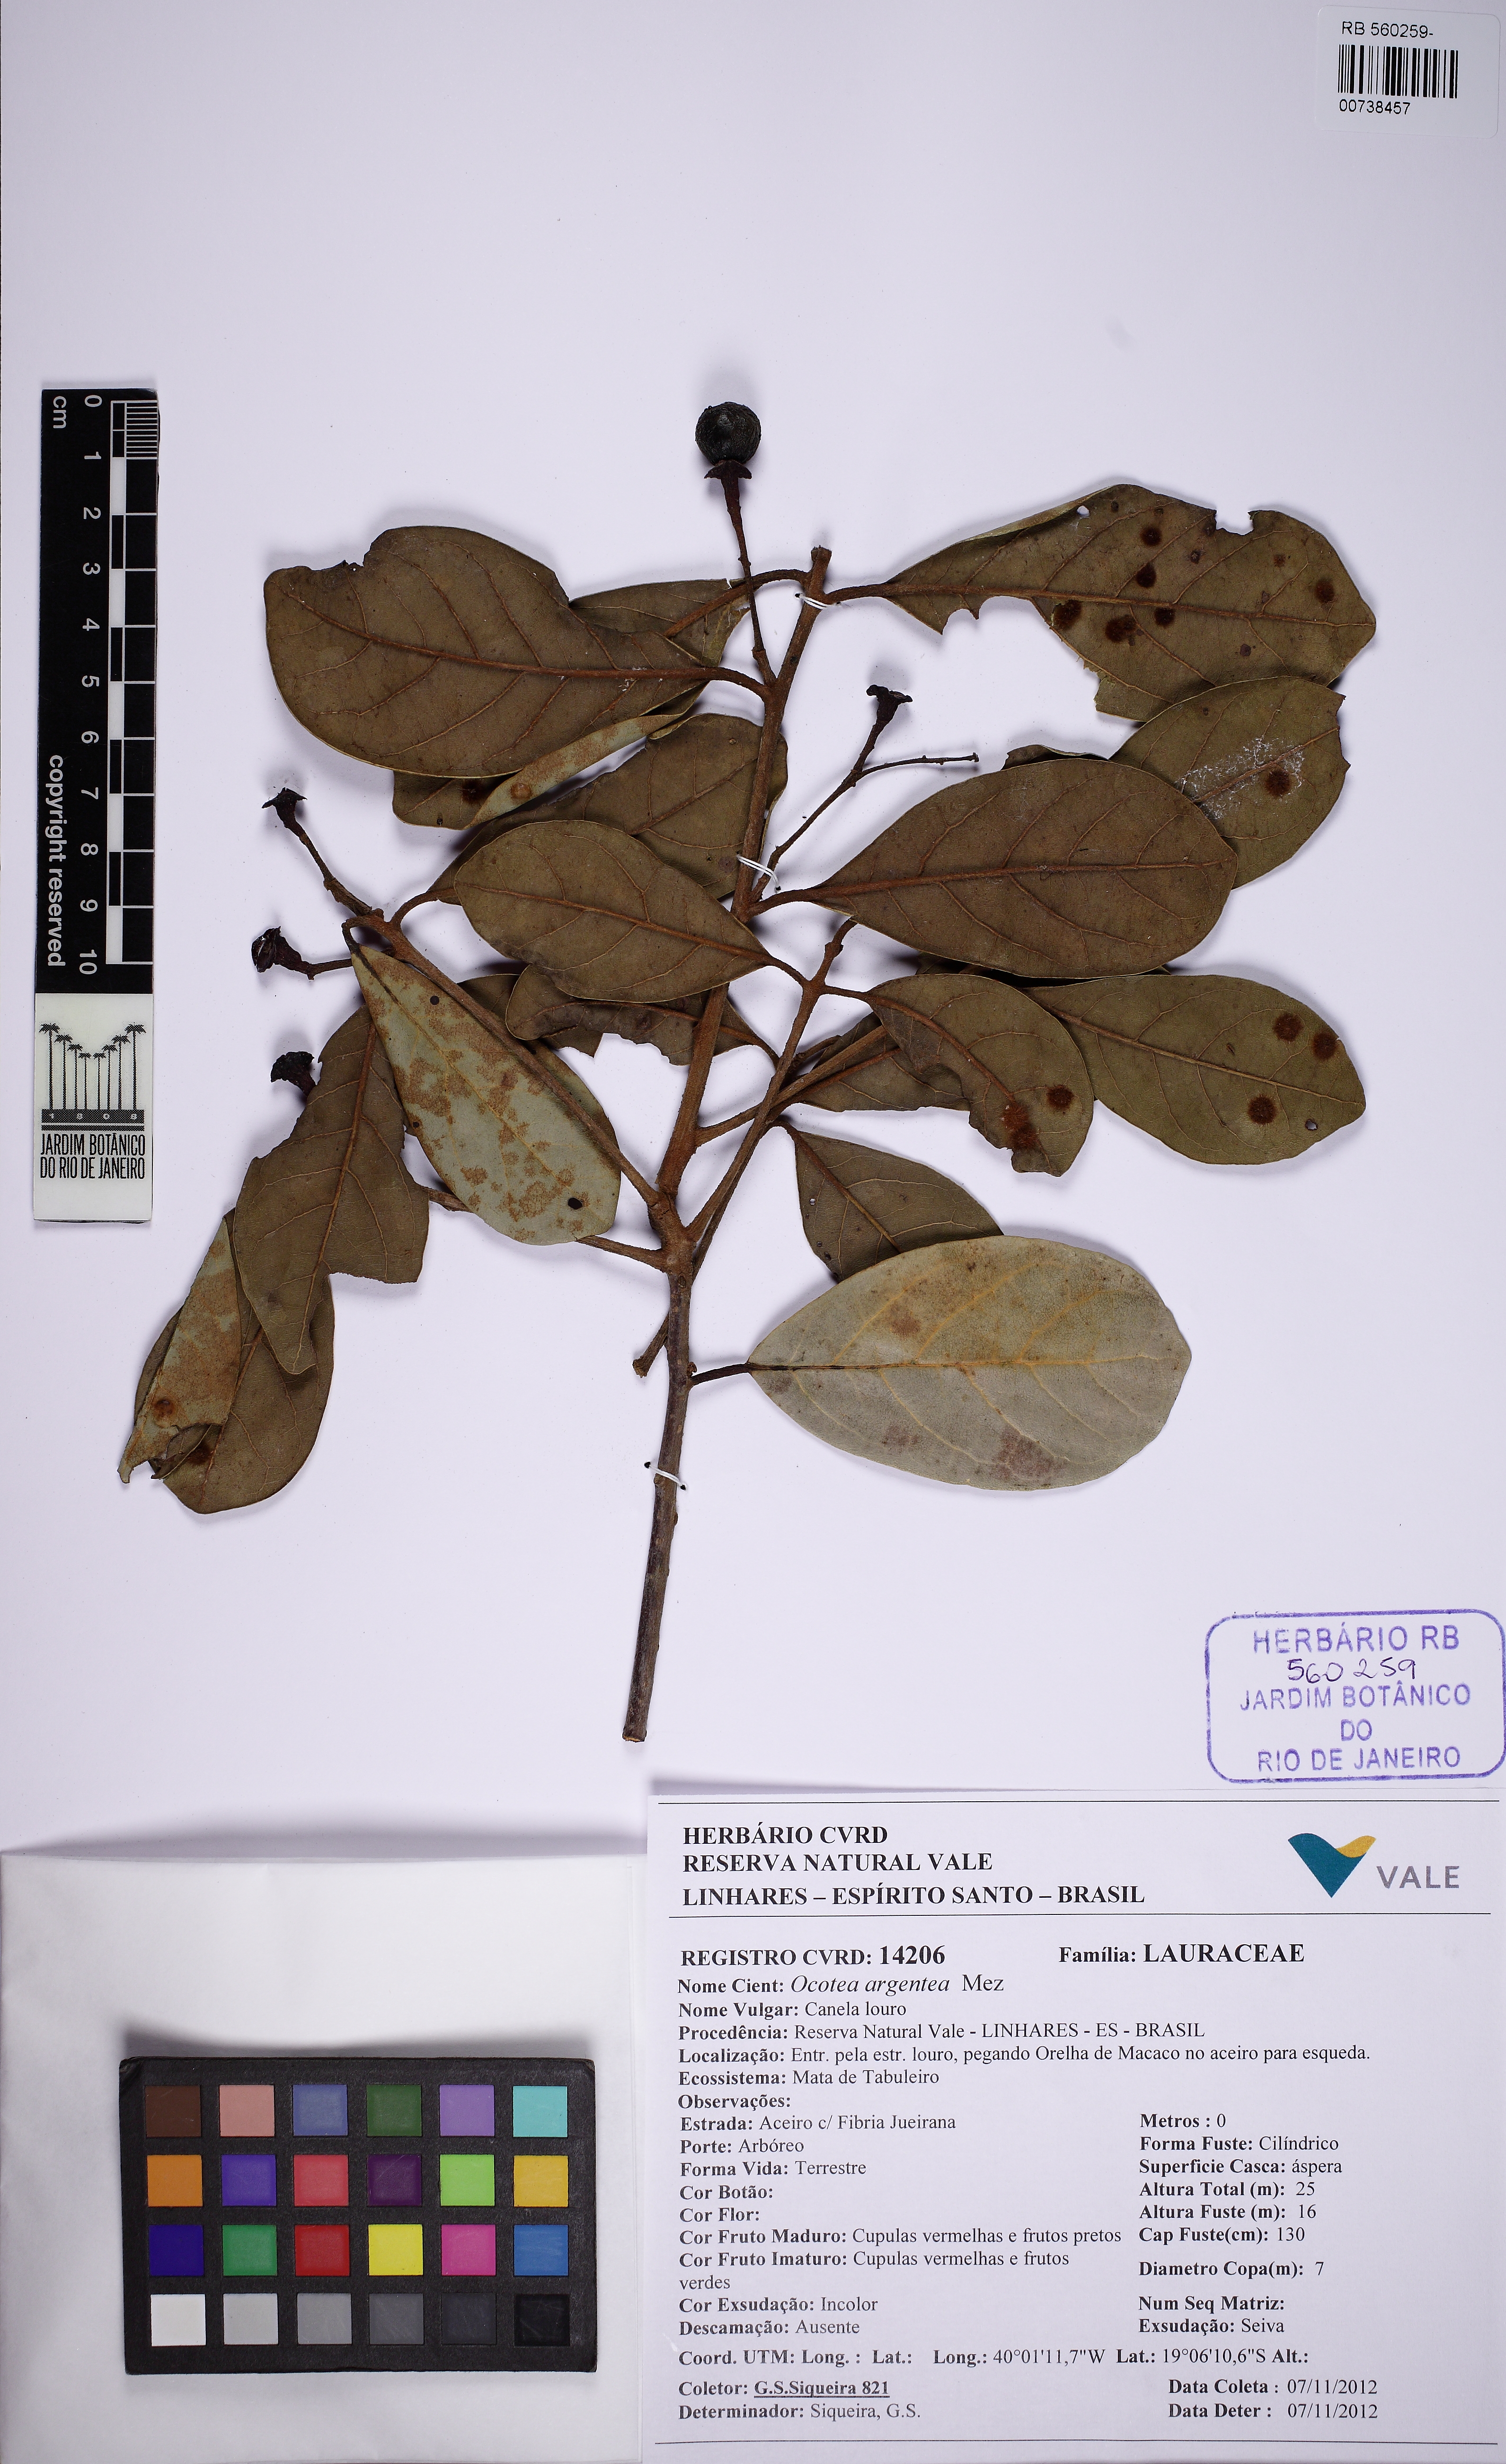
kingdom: Plantae
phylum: Tracheophyta
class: Magnoliopsida
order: Laurales
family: Lauraceae
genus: Ocotea
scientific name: Ocotea argentea
